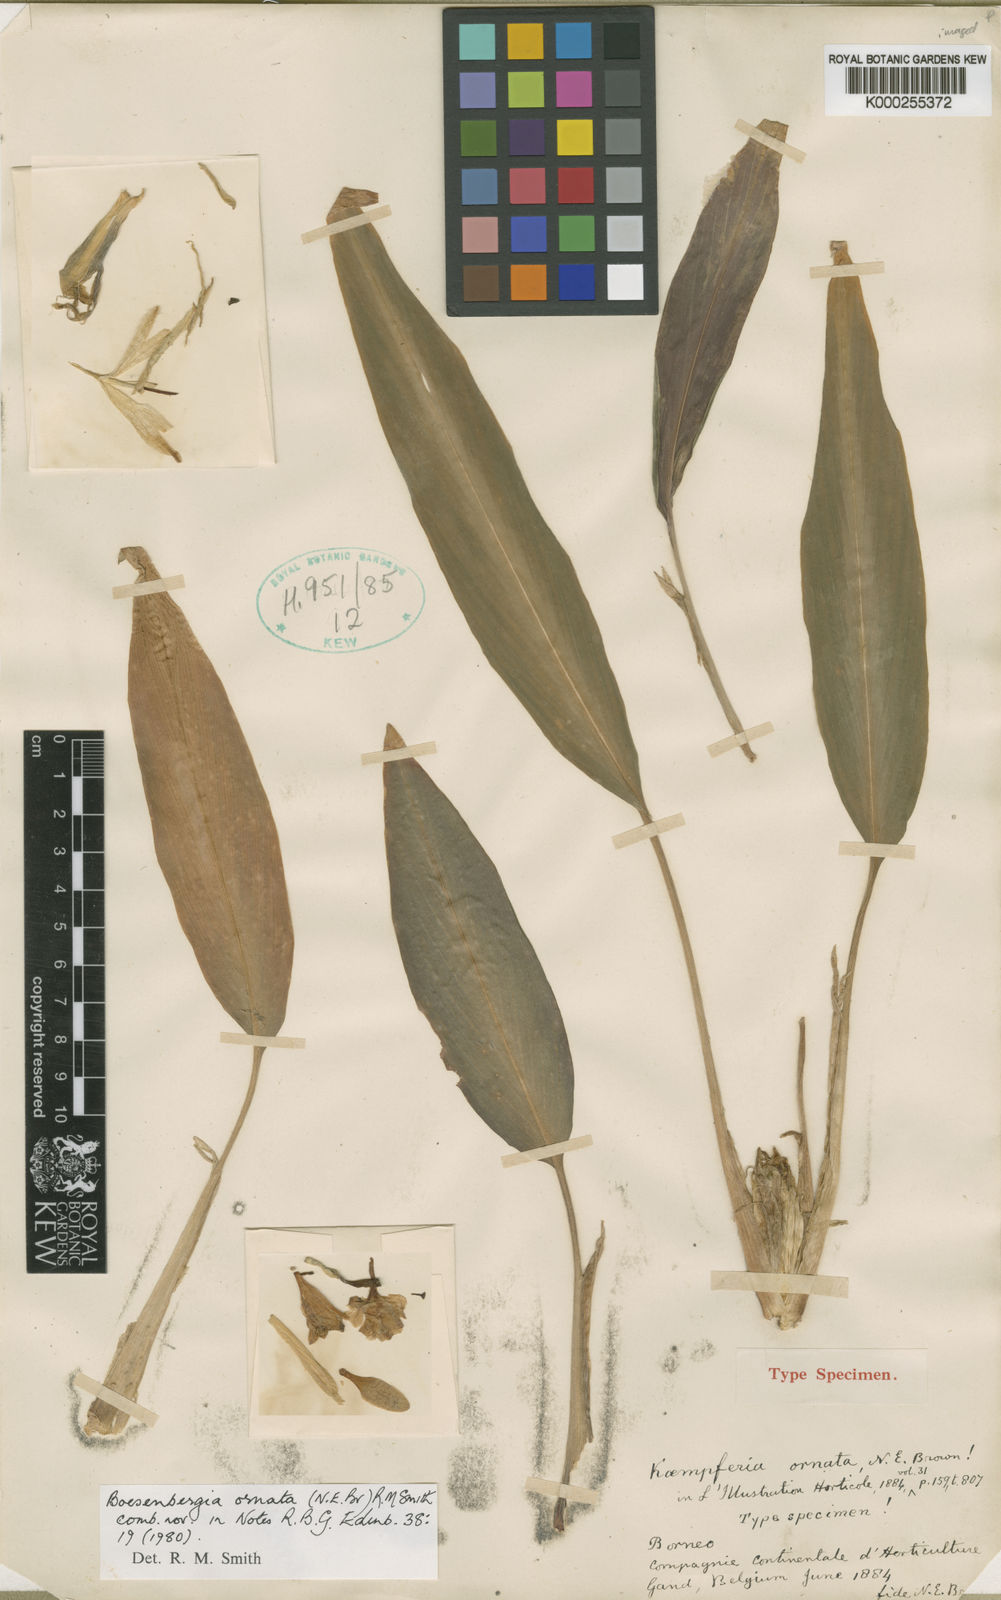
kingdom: Plantae
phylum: Tracheophyta
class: Liliopsida
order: Zingiberales
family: Zingiberaceae
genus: Boesenbergia
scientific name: Boesenbergia ornata
